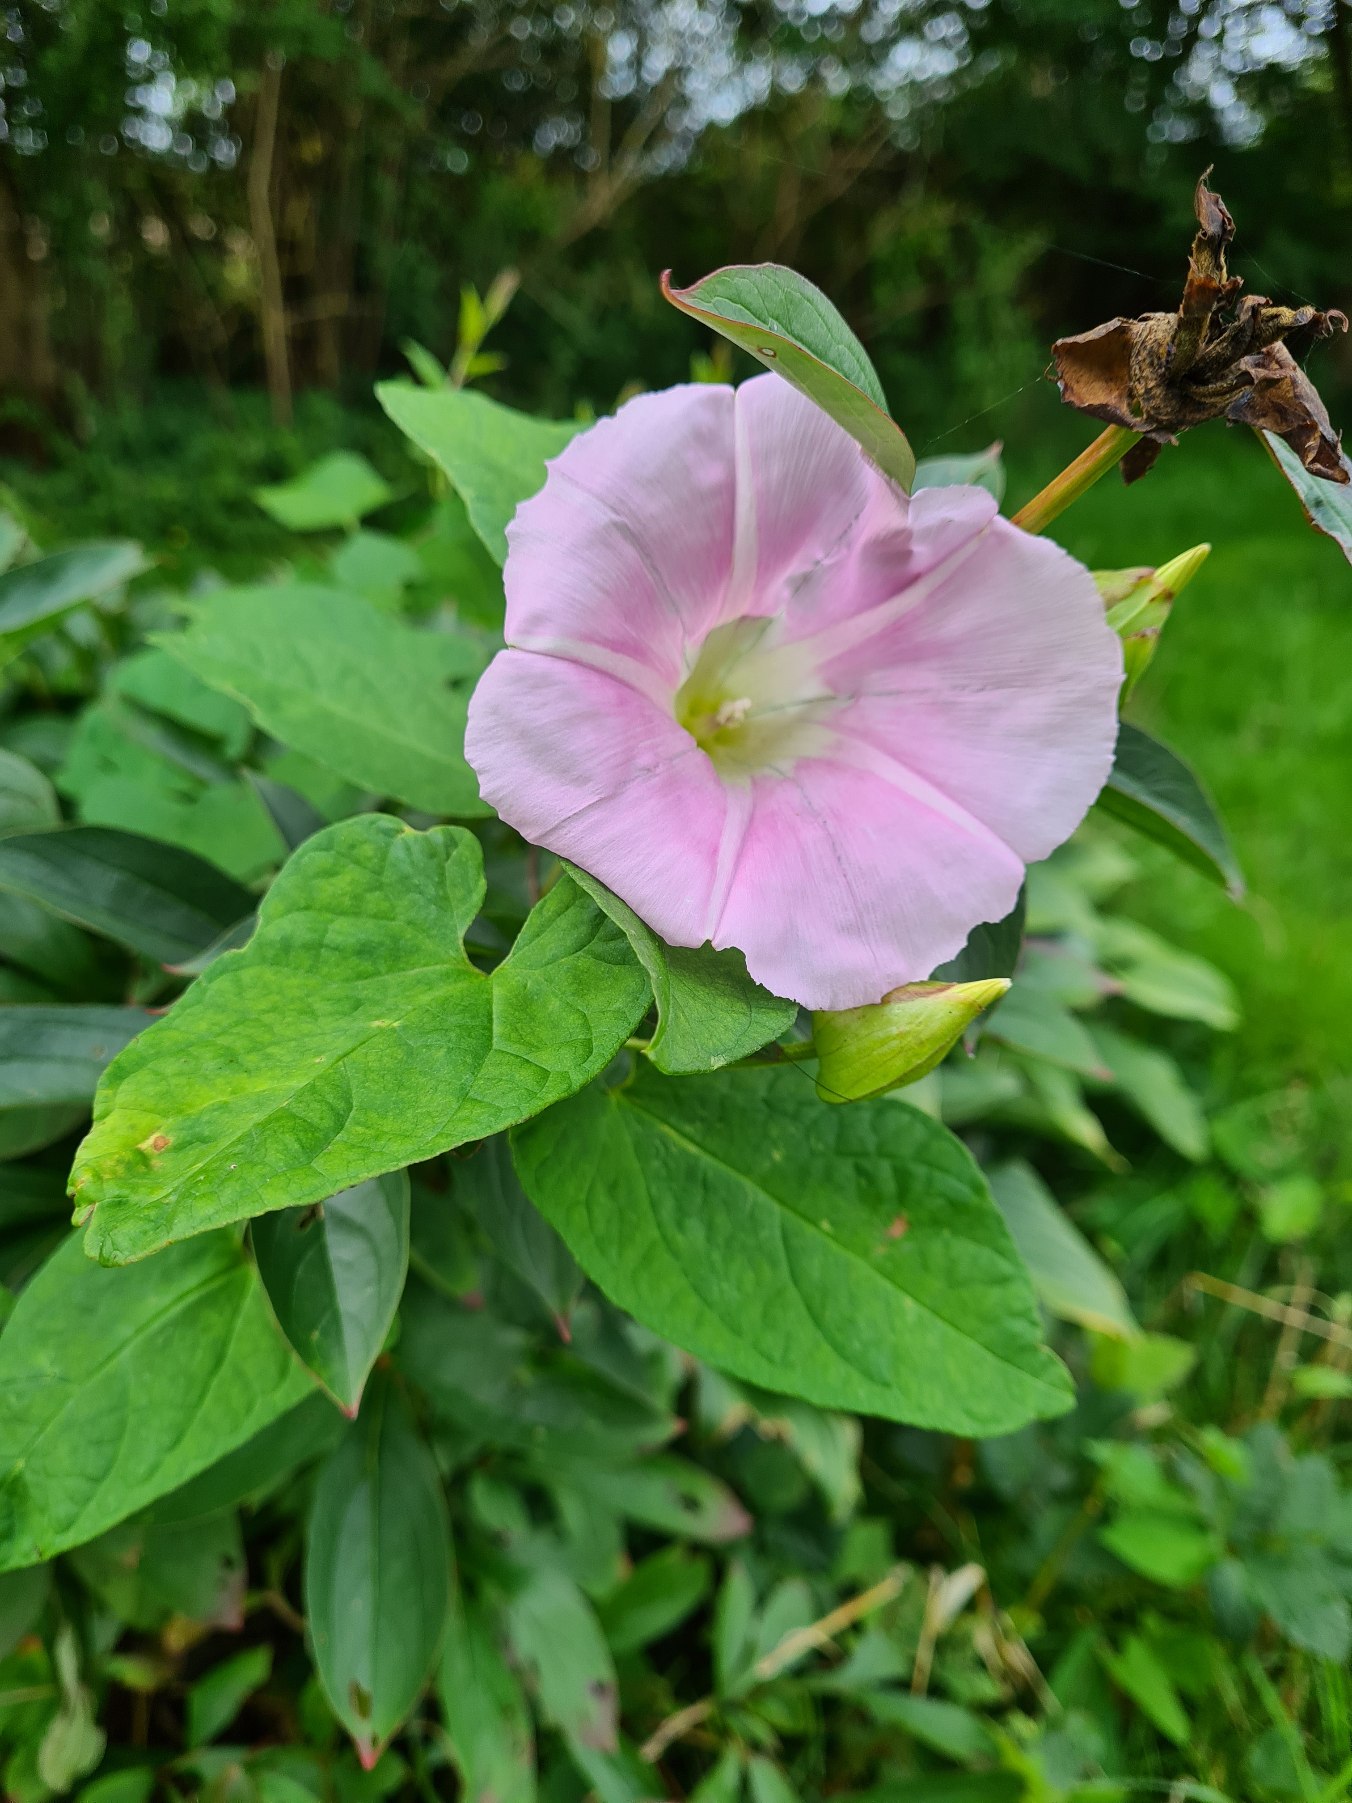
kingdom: Plantae
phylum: Tracheophyta
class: Magnoliopsida
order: Solanales
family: Convolvulaceae
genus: Calystegia
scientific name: Calystegia pulchra
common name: Have-snerle
